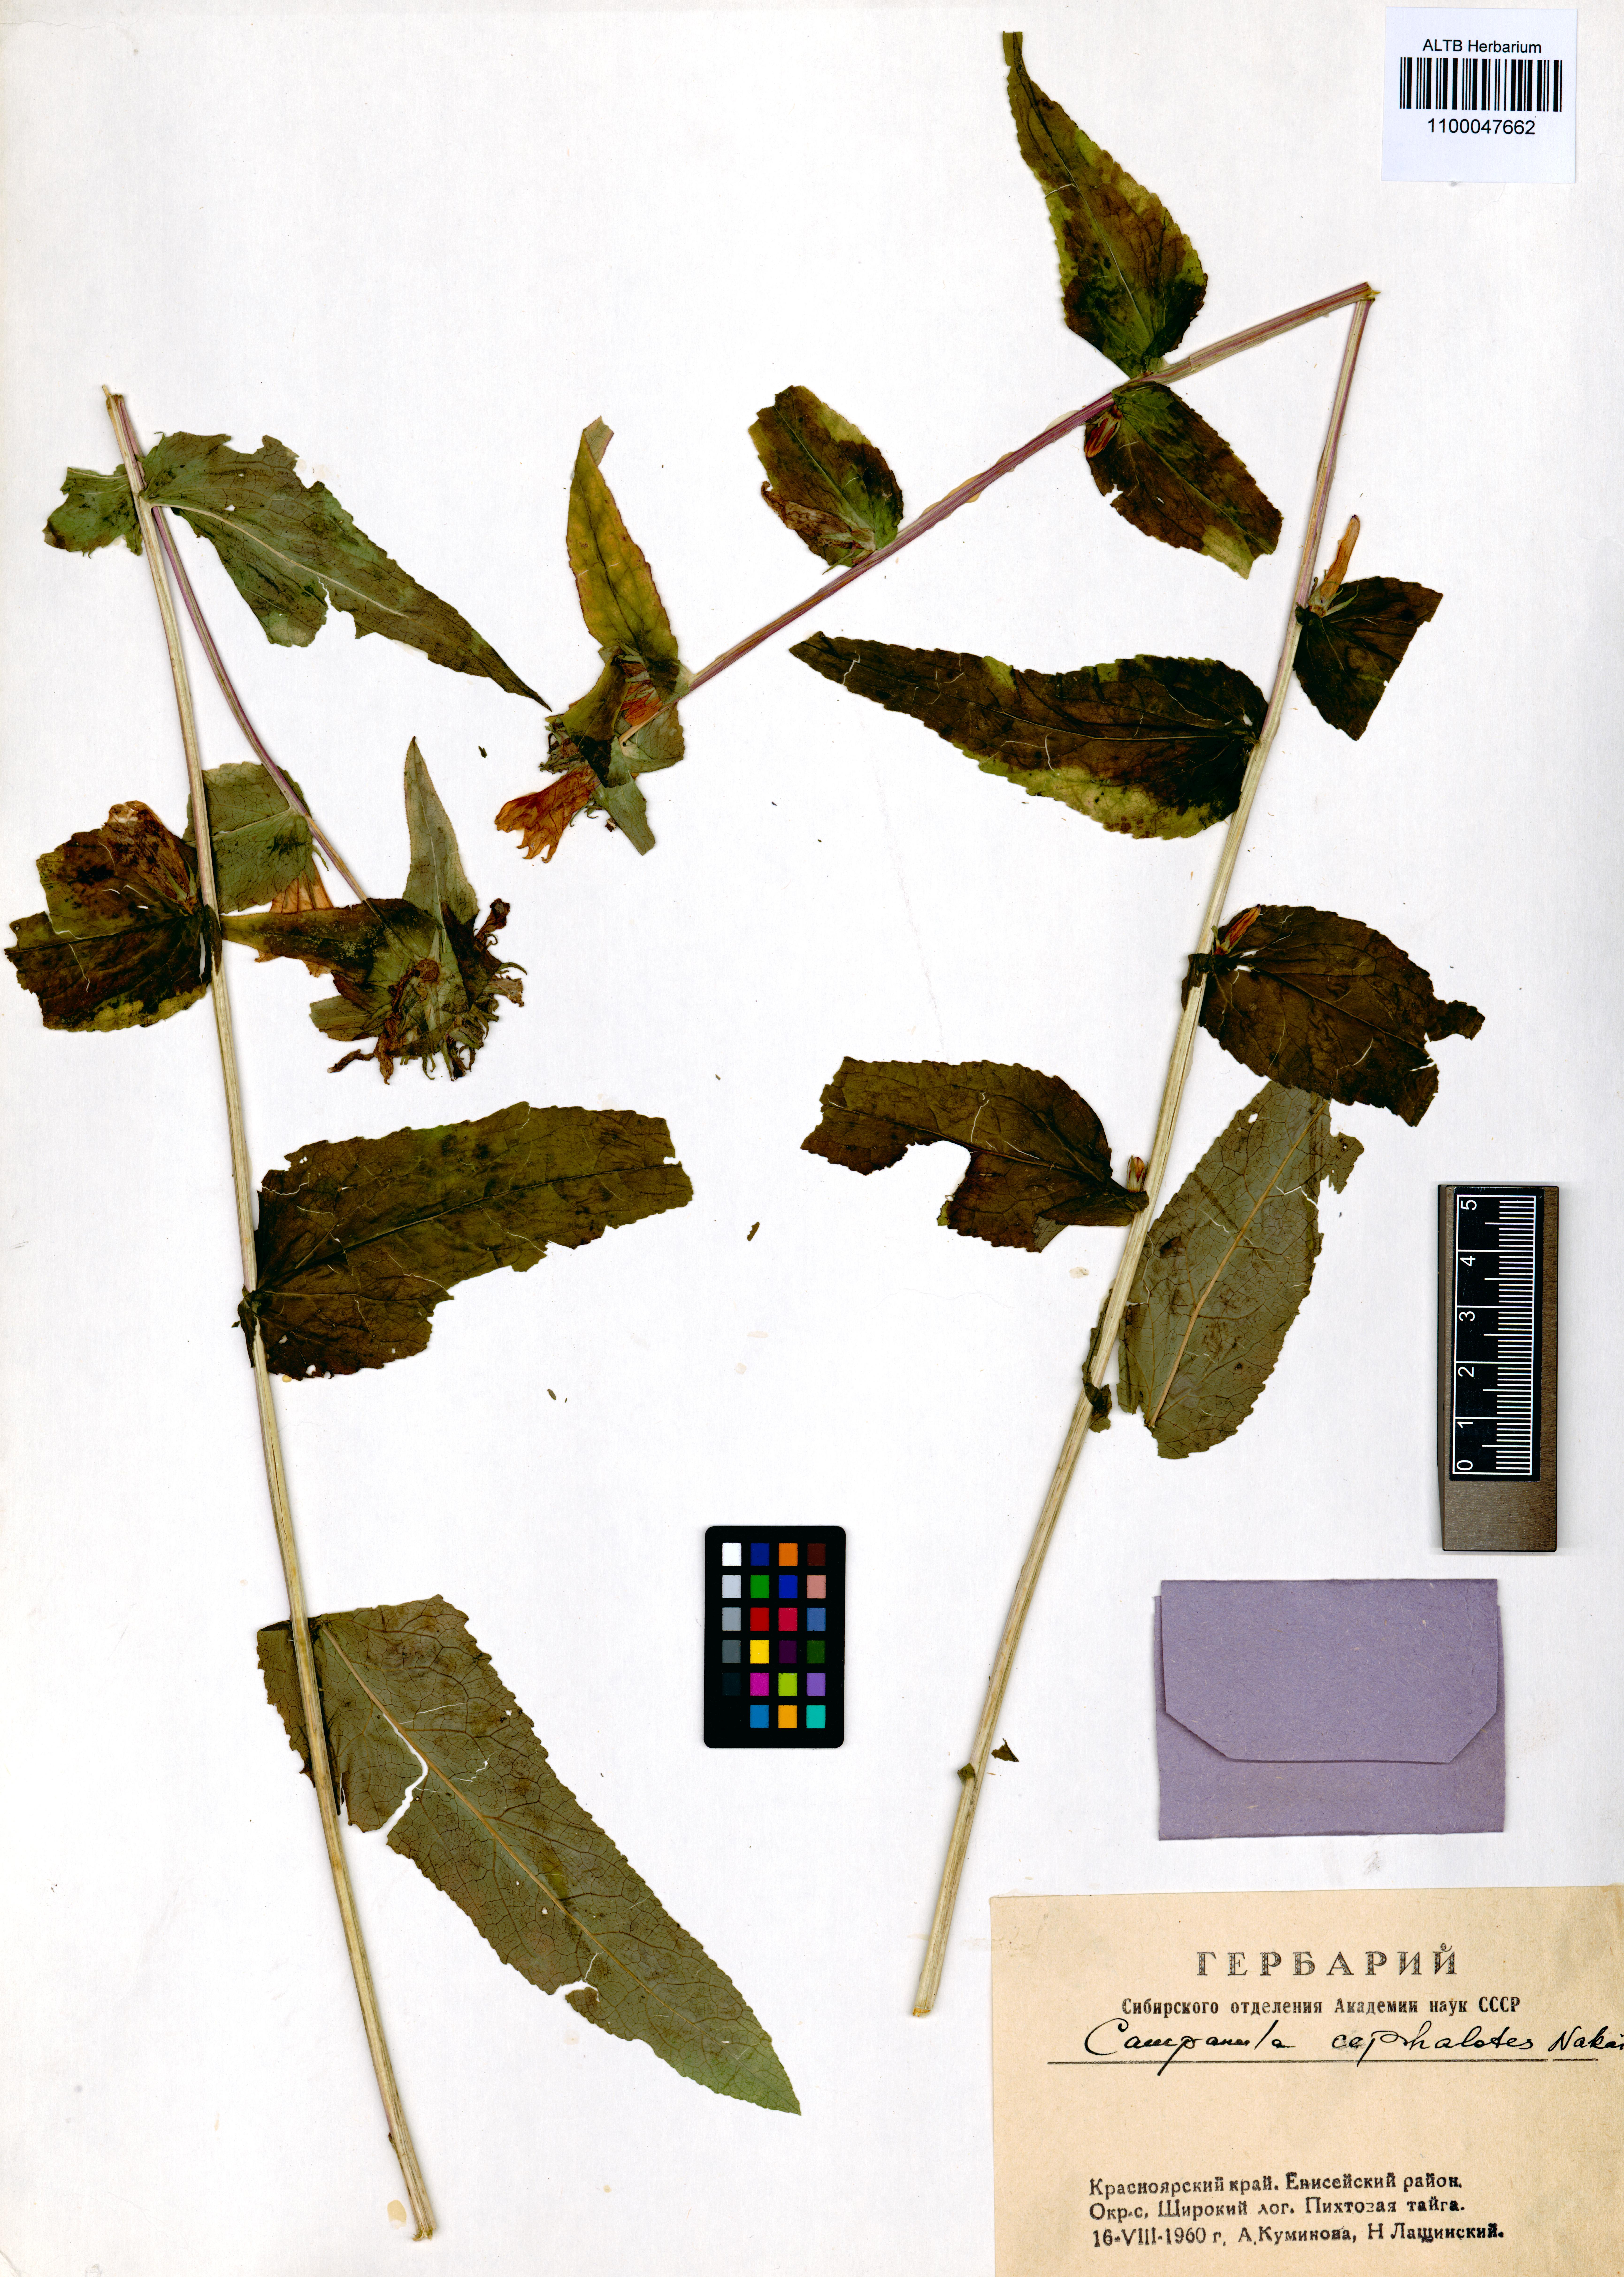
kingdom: Plantae
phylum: Tracheophyta
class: Magnoliopsida
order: Asterales
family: Campanulaceae
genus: Campanula
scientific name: Campanula glomerata
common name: Clustered bellflower
